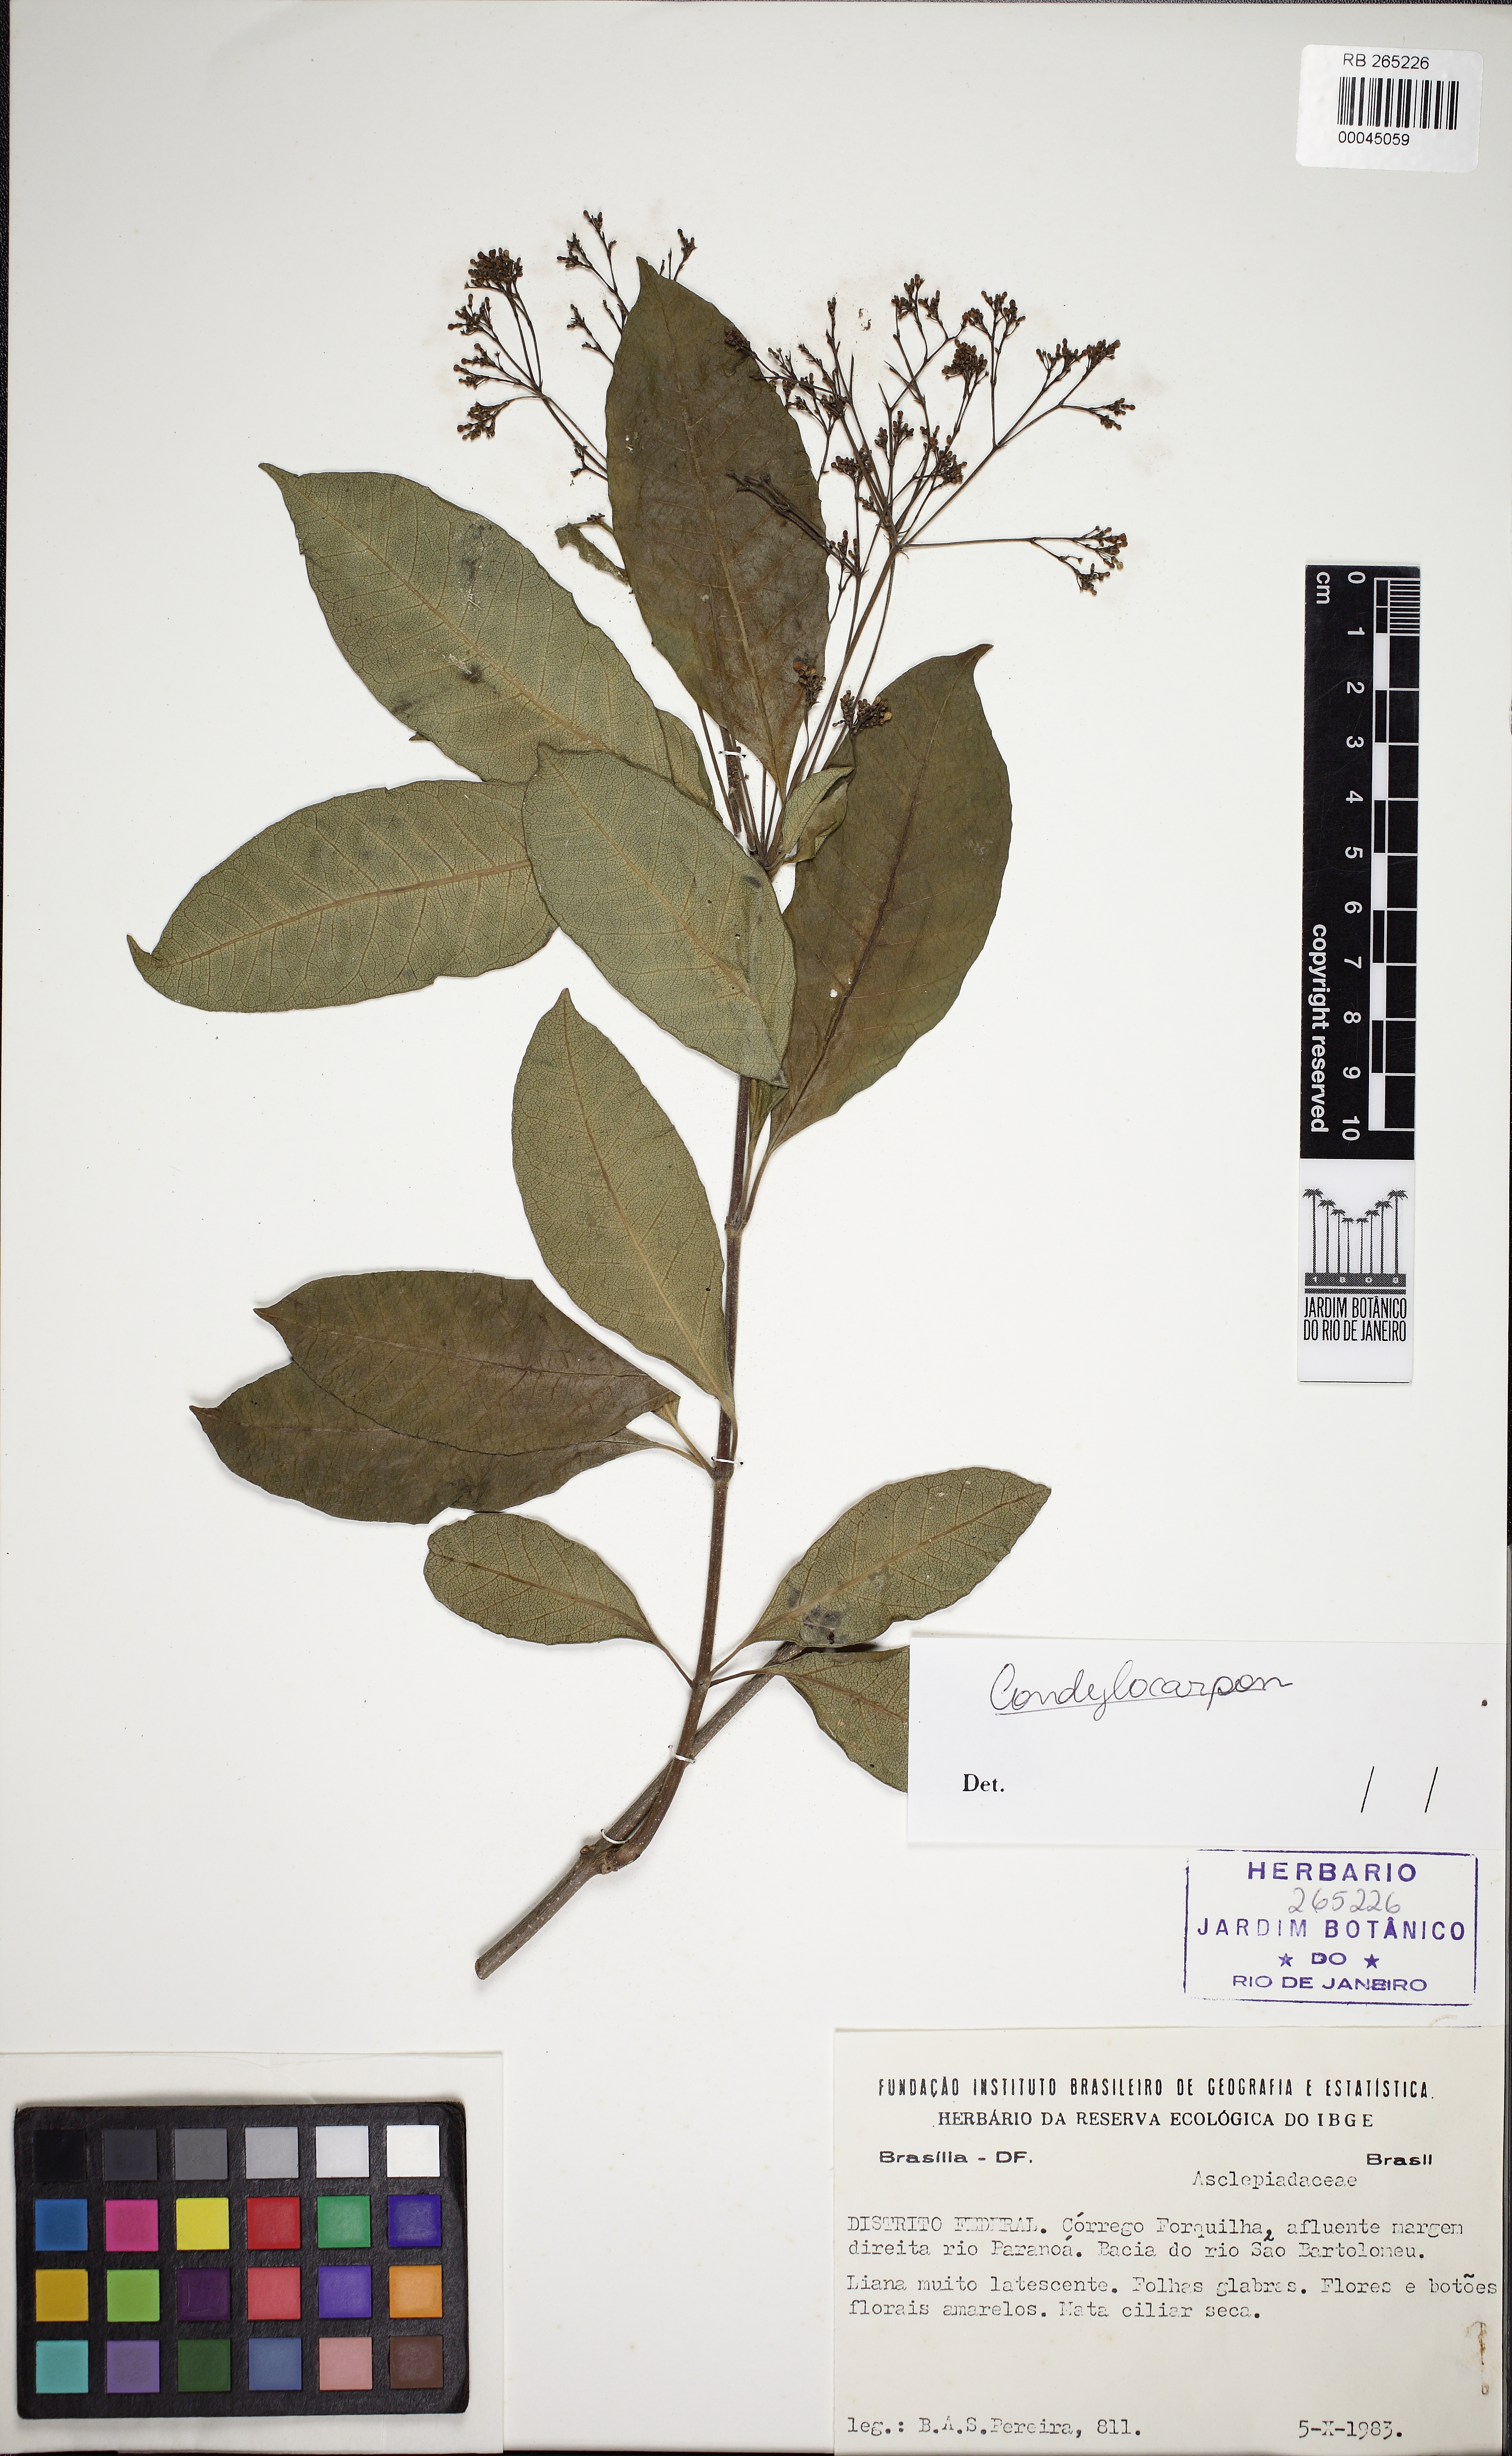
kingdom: Plantae
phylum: Tracheophyta
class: Magnoliopsida
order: Gentianales
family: Apocynaceae
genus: Condylocarpon
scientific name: Condylocarpon
